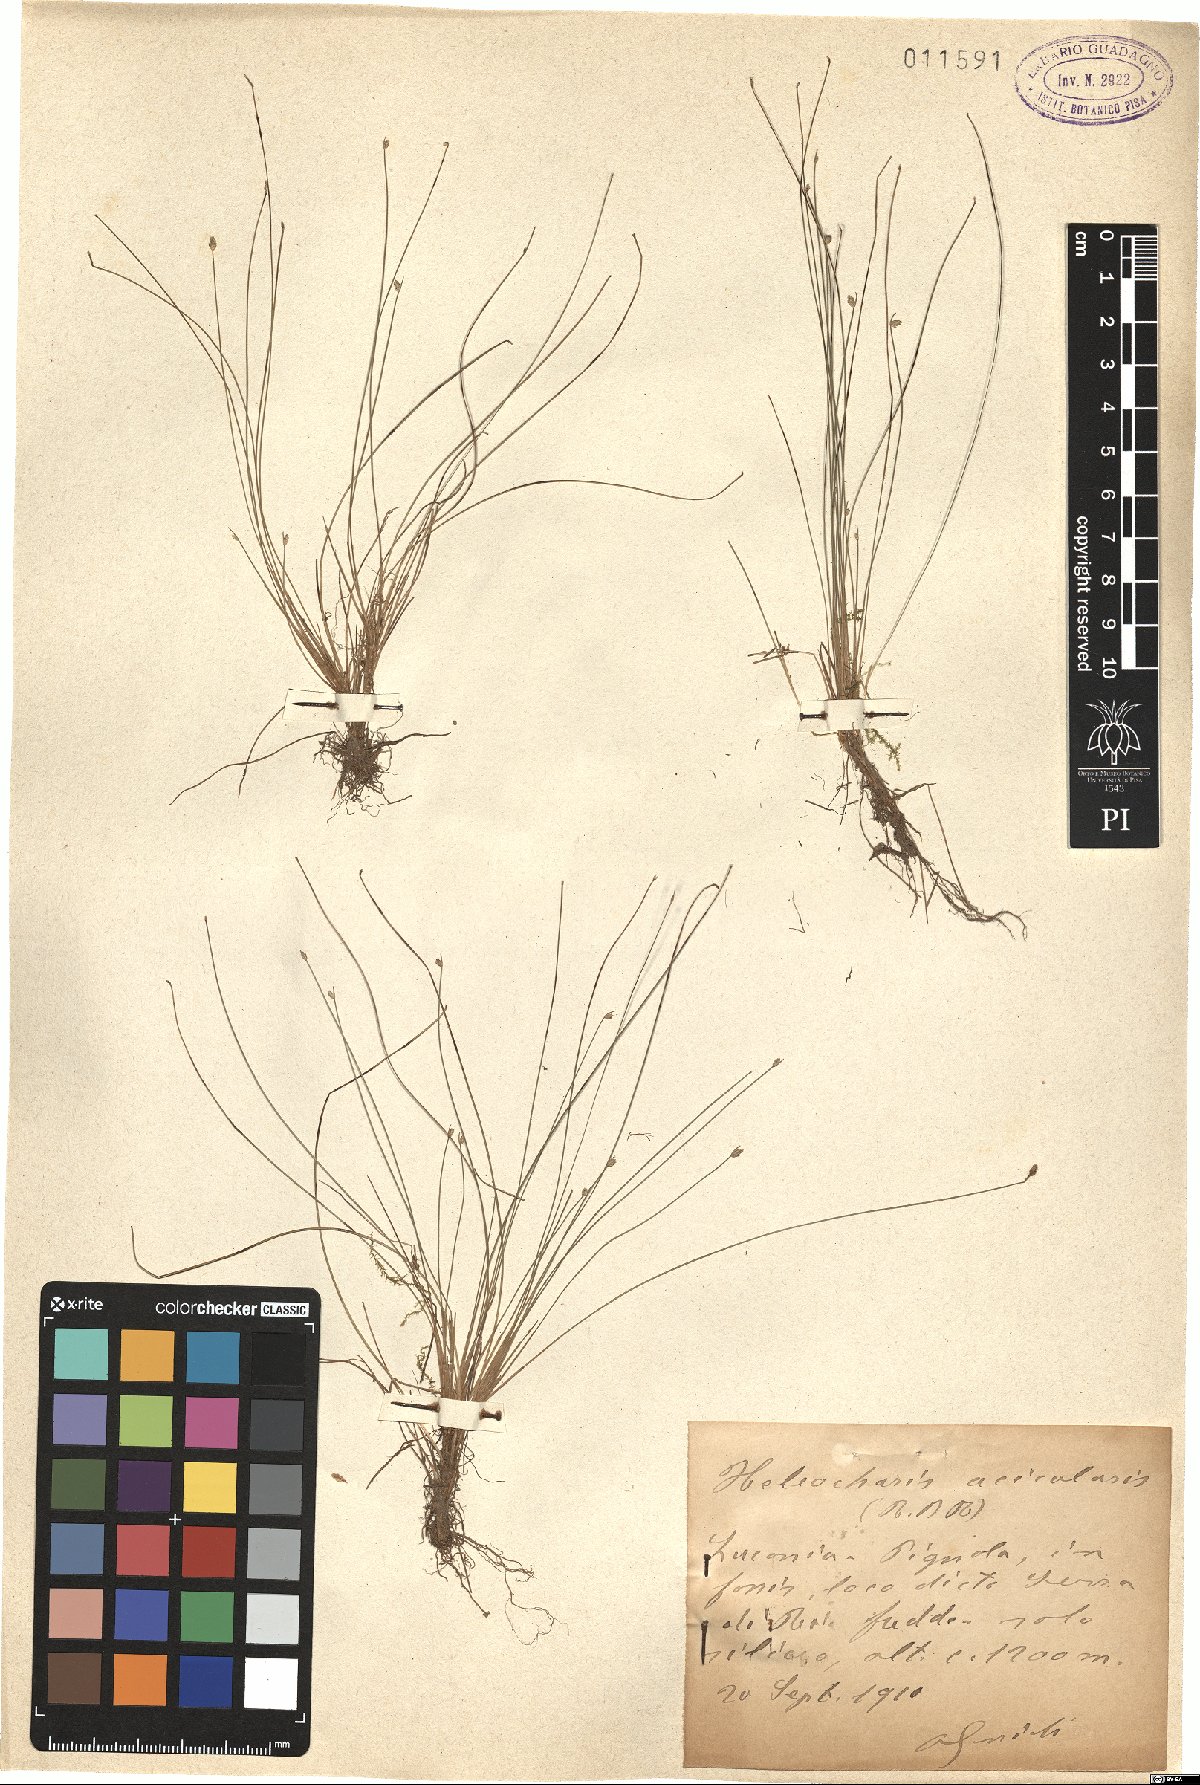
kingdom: Plantae
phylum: Tracheophyta
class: Liliopsida
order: Poales
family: Cyperaceae
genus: Eleocharis
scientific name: Eleocharis acicularis
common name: Needle spike-rush
